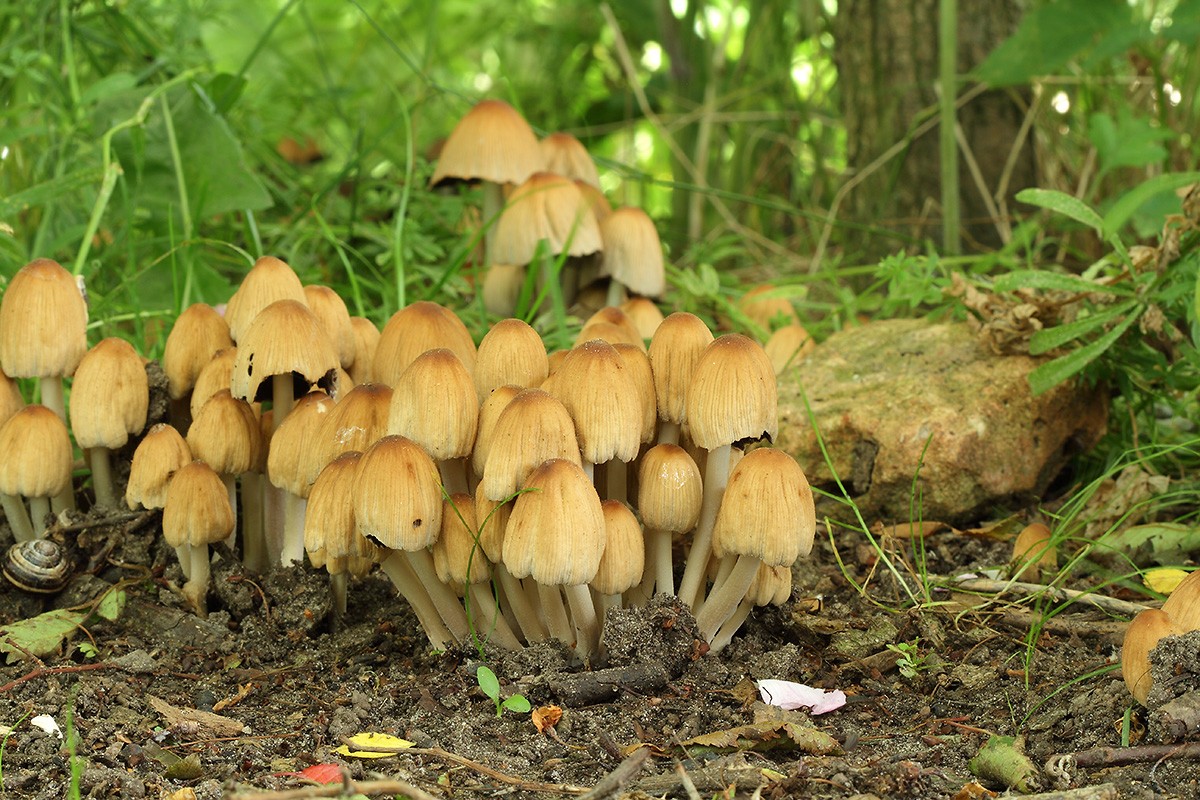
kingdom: Fungi
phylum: Basidiomycota
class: Agaricomycetes
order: Agaricales
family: Psathyrellaceae
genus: Coprinellus
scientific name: Coprinellus micaceus
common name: glimmer-blækhat
